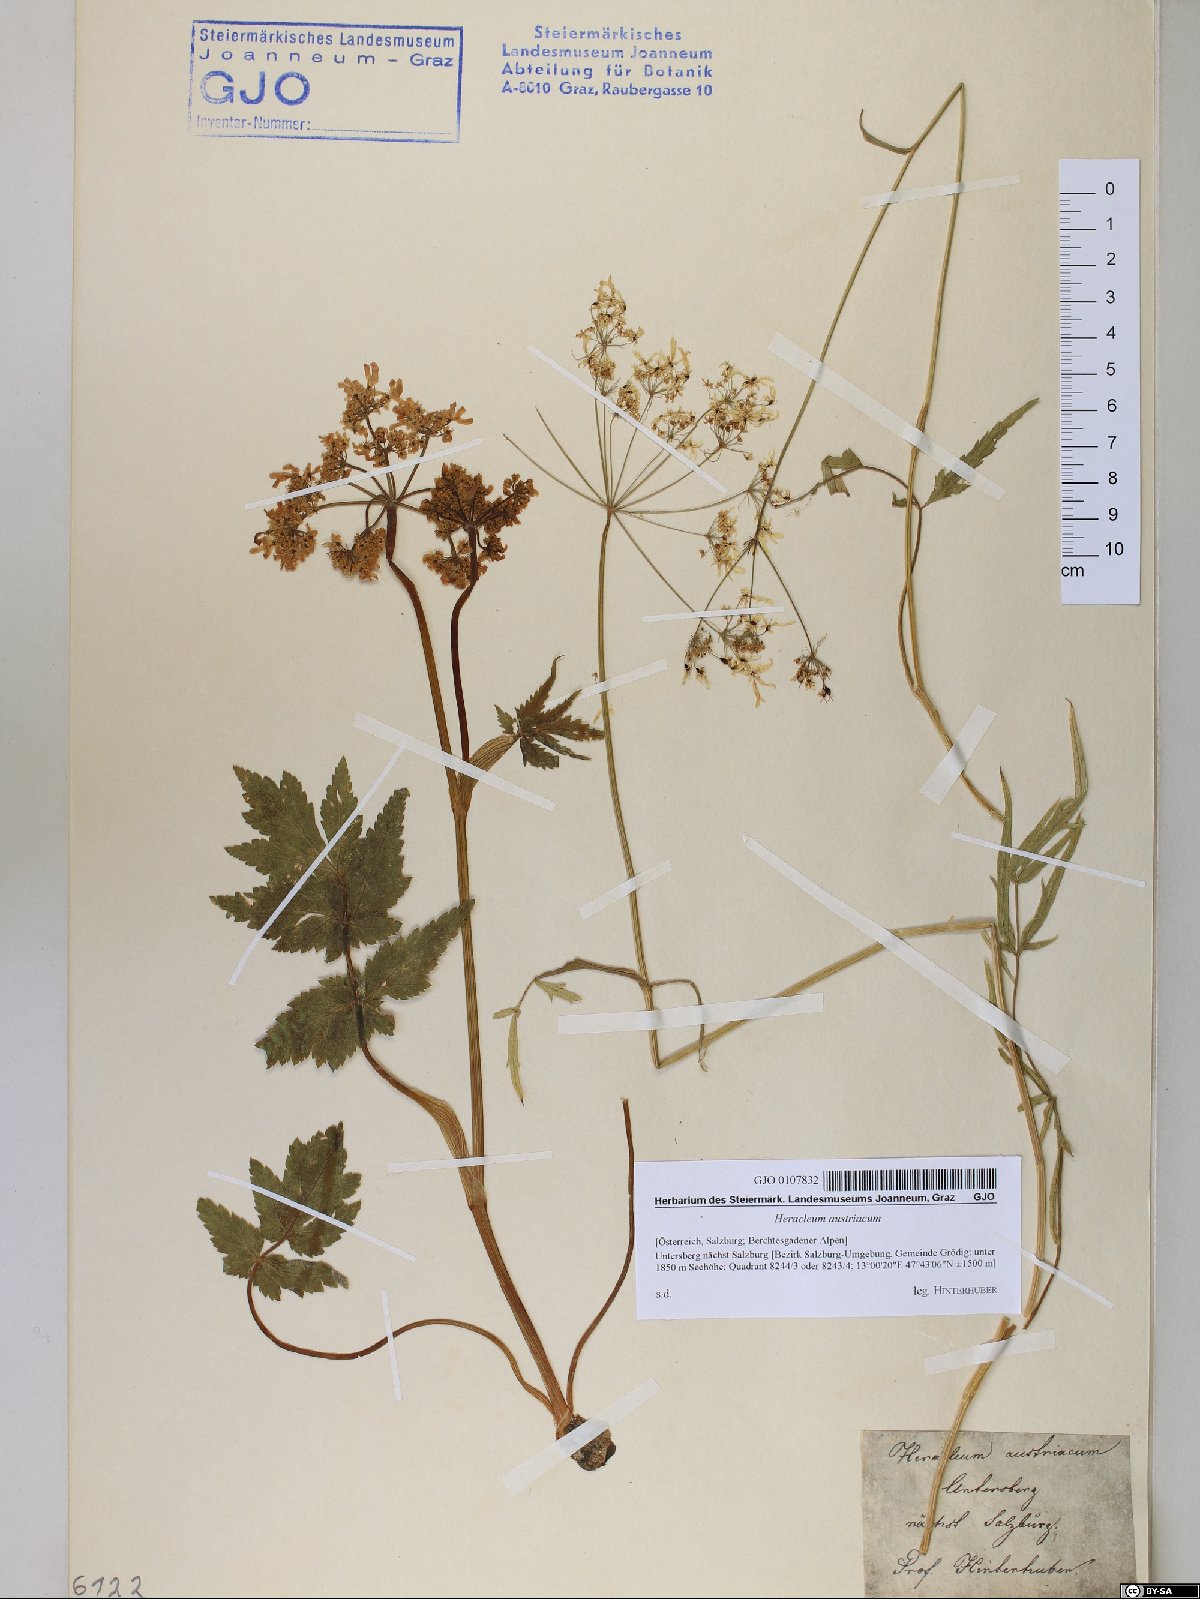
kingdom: Plantae
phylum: Tracheophyta
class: Magnoliopsida
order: Apiales
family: Apiaceae
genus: Heracleum
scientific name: Heracleum austriacum
